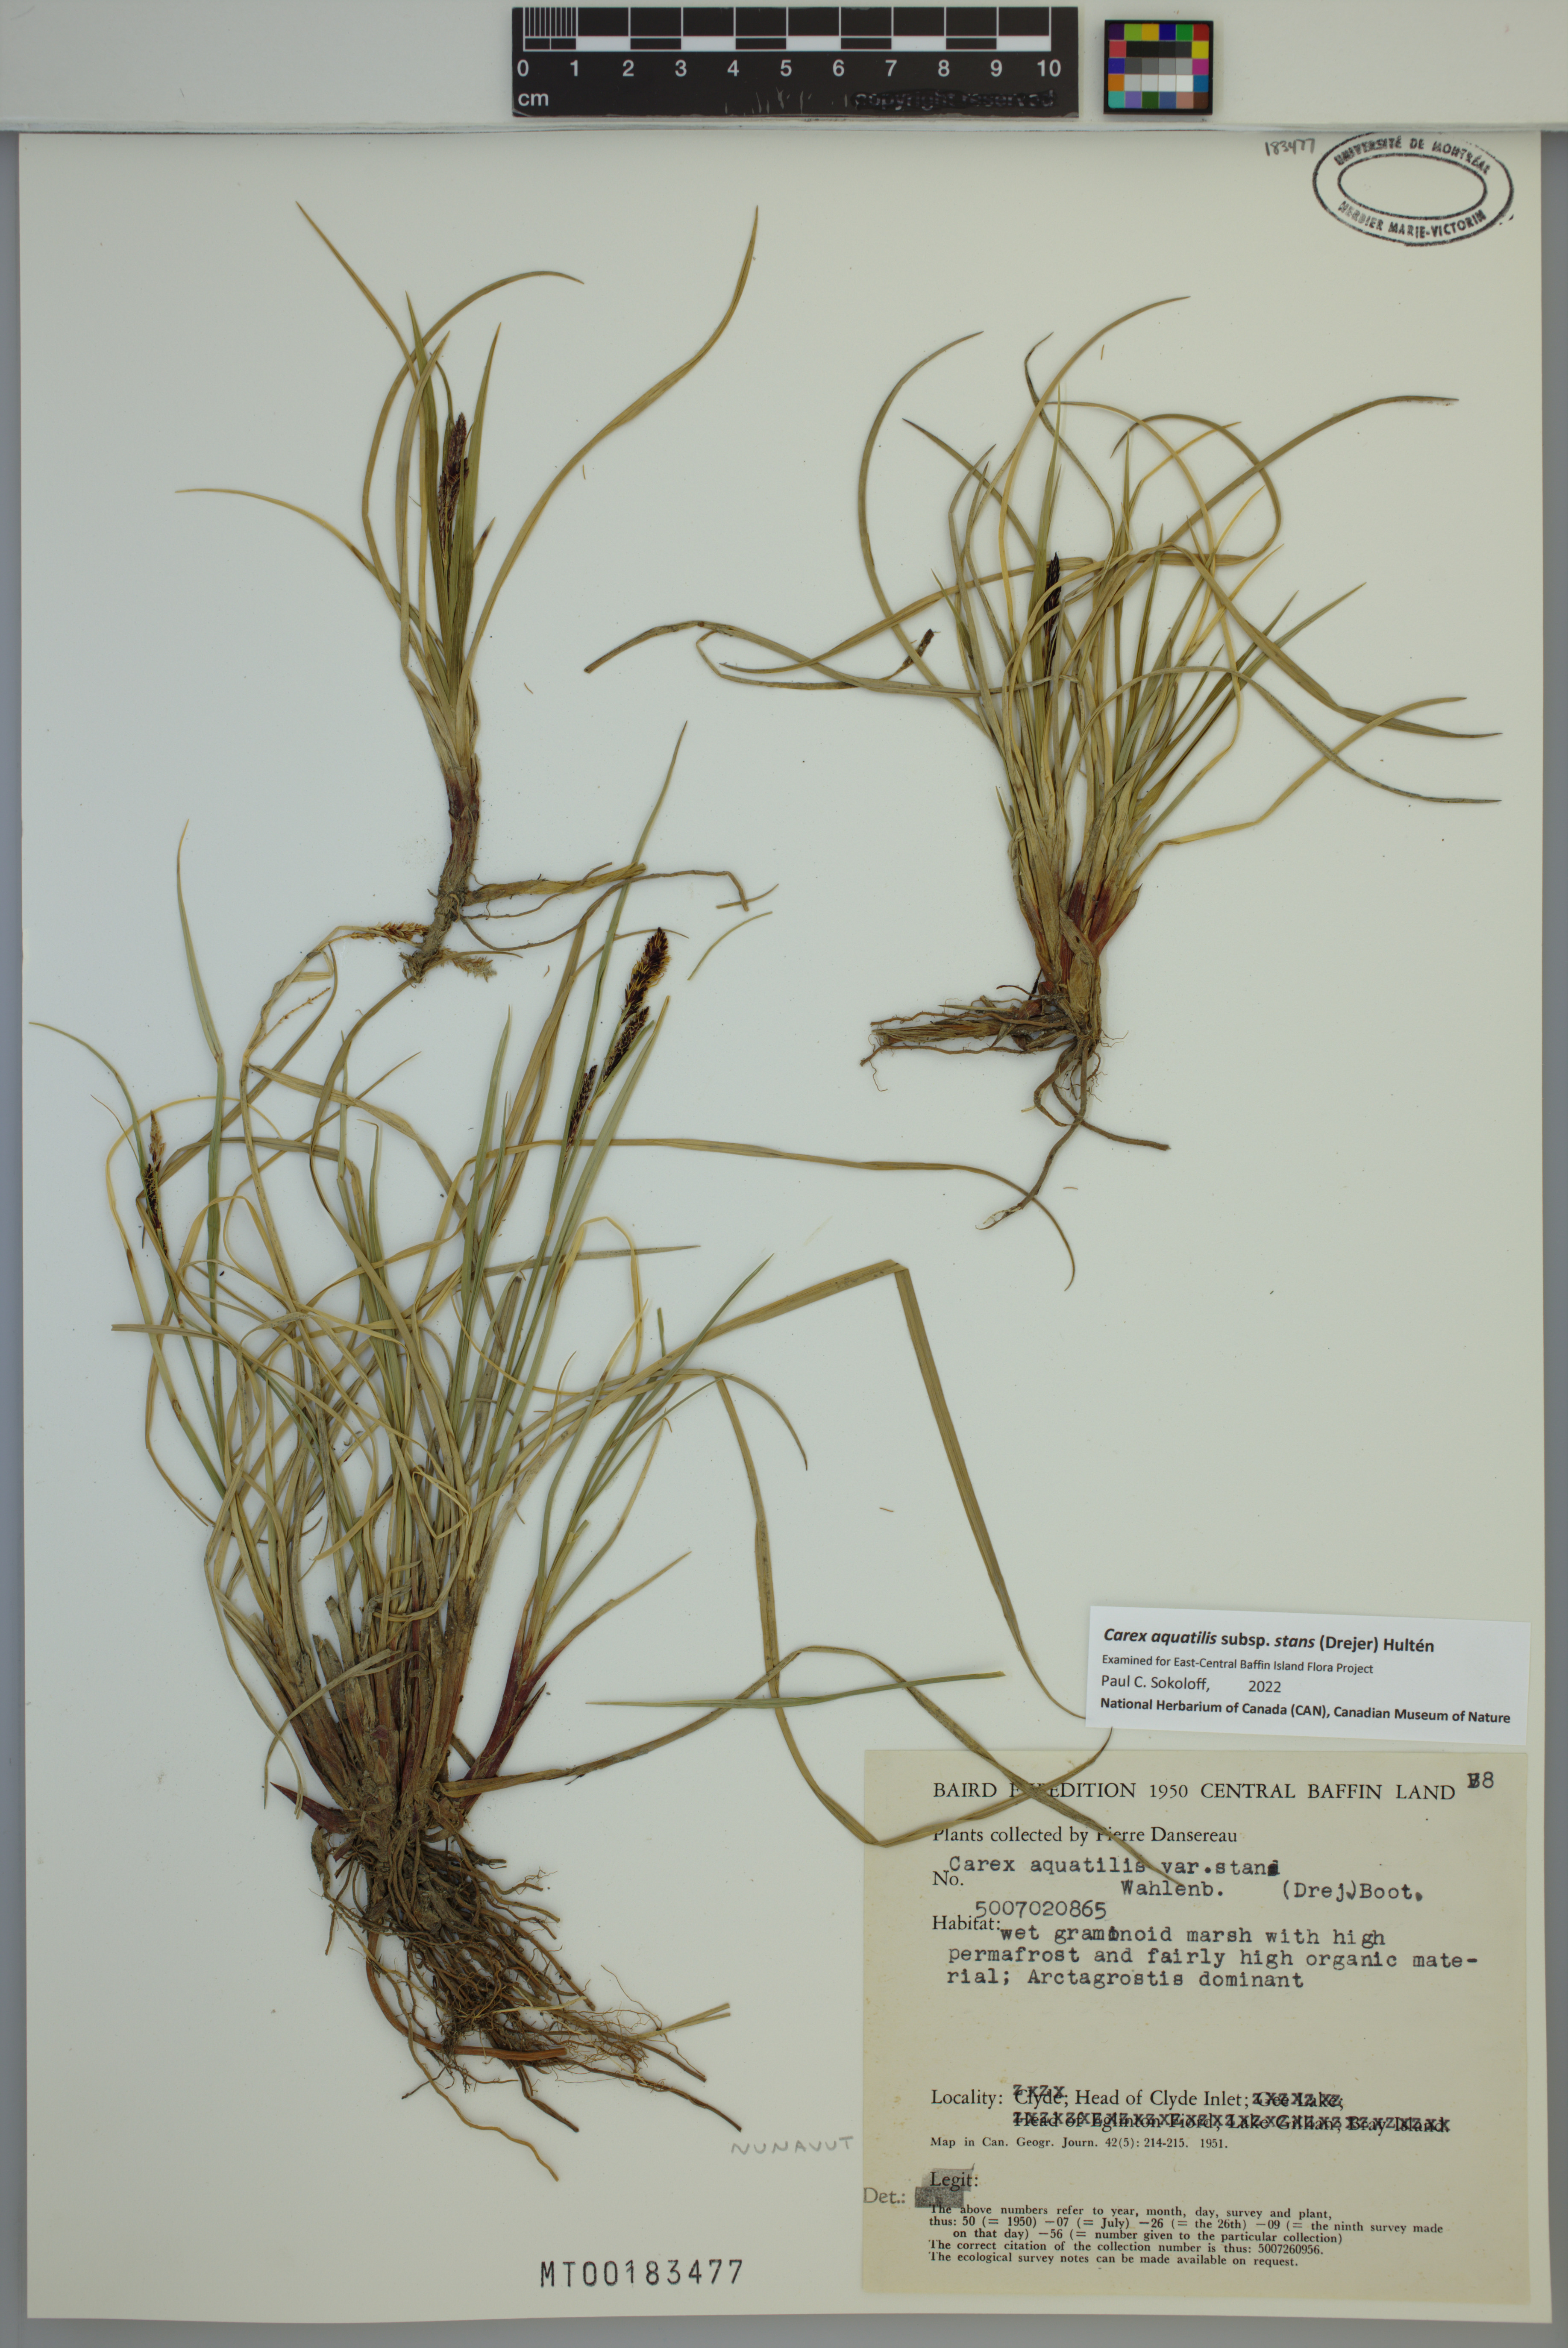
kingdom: Plantae
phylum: Tracheophyta
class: Liliopsida
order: Poales
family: Cyperaceae
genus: Carex
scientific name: Carex aquatilis
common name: Water sedge
